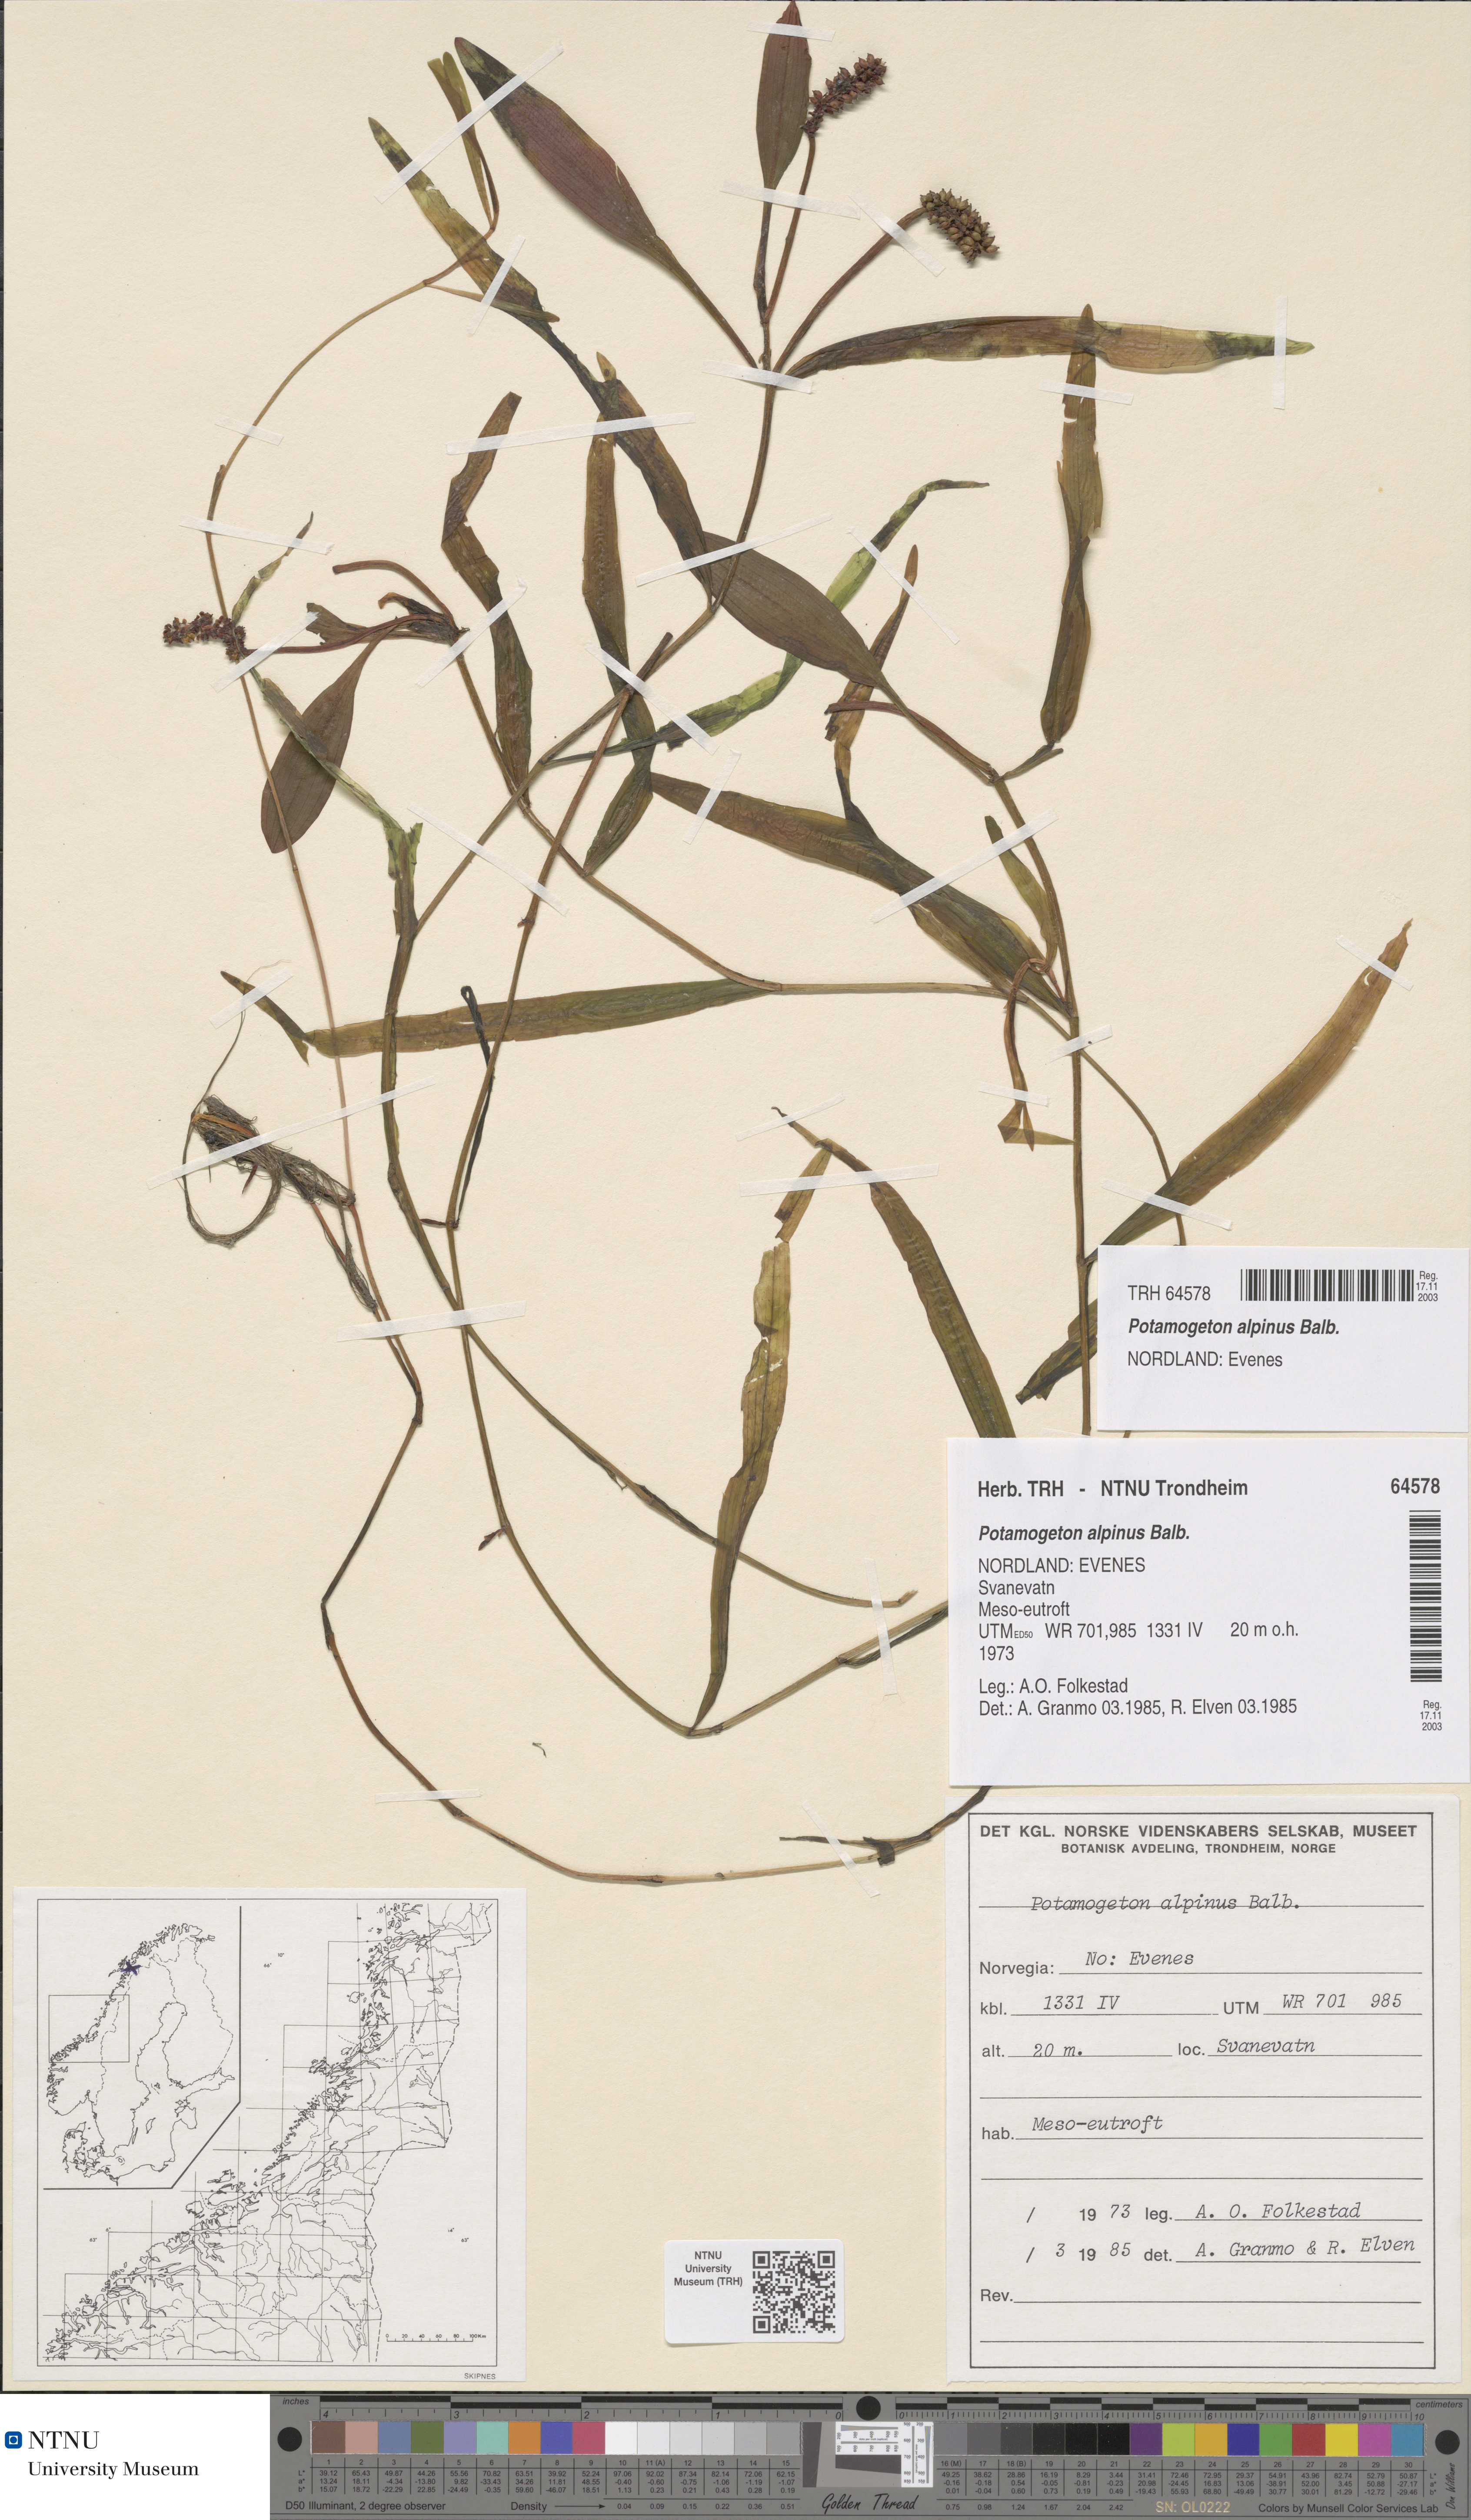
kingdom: Plantae
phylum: Tracheophyta
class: Liliopsida
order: Alismatales
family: Potamogetonaceae
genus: Potamogeton
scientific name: Potamogeton alpinus
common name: Red pondweed
